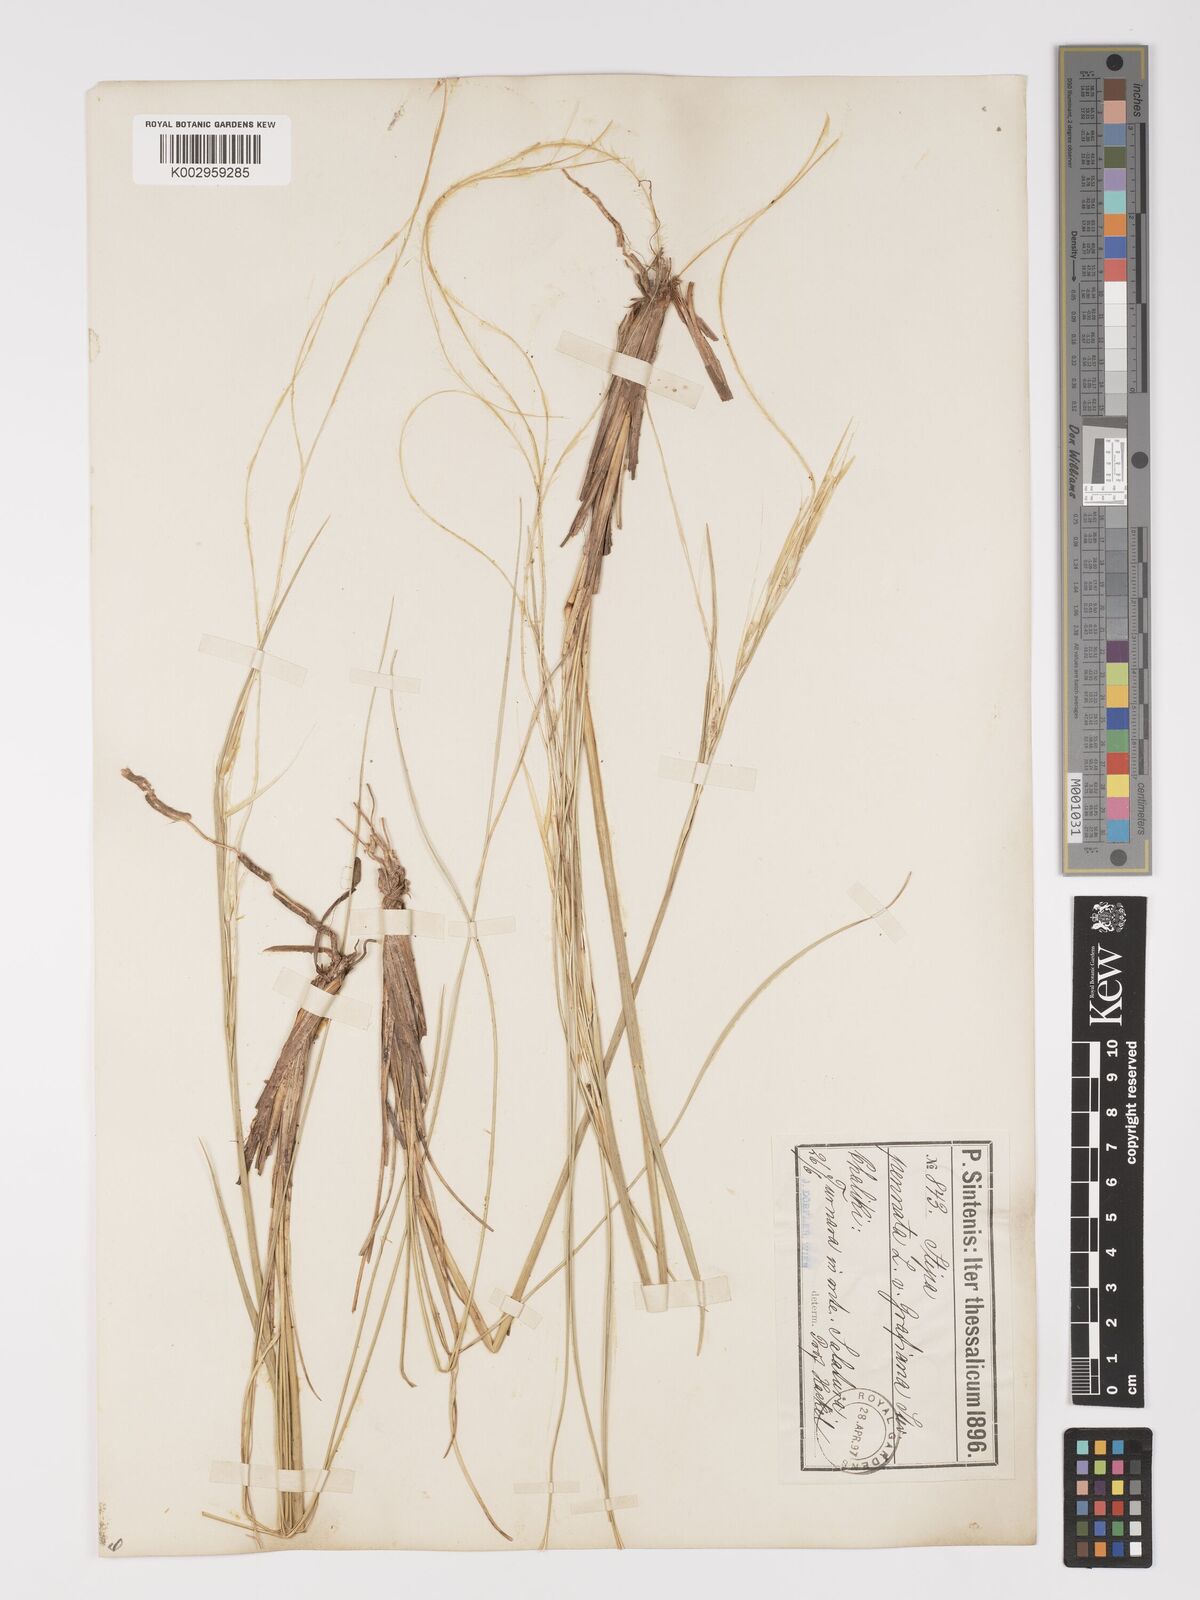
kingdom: Plantae
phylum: Tracheophyta
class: Liliopsida
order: Poales
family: Poaceae
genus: Stipa
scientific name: Stipa pulcherrima
